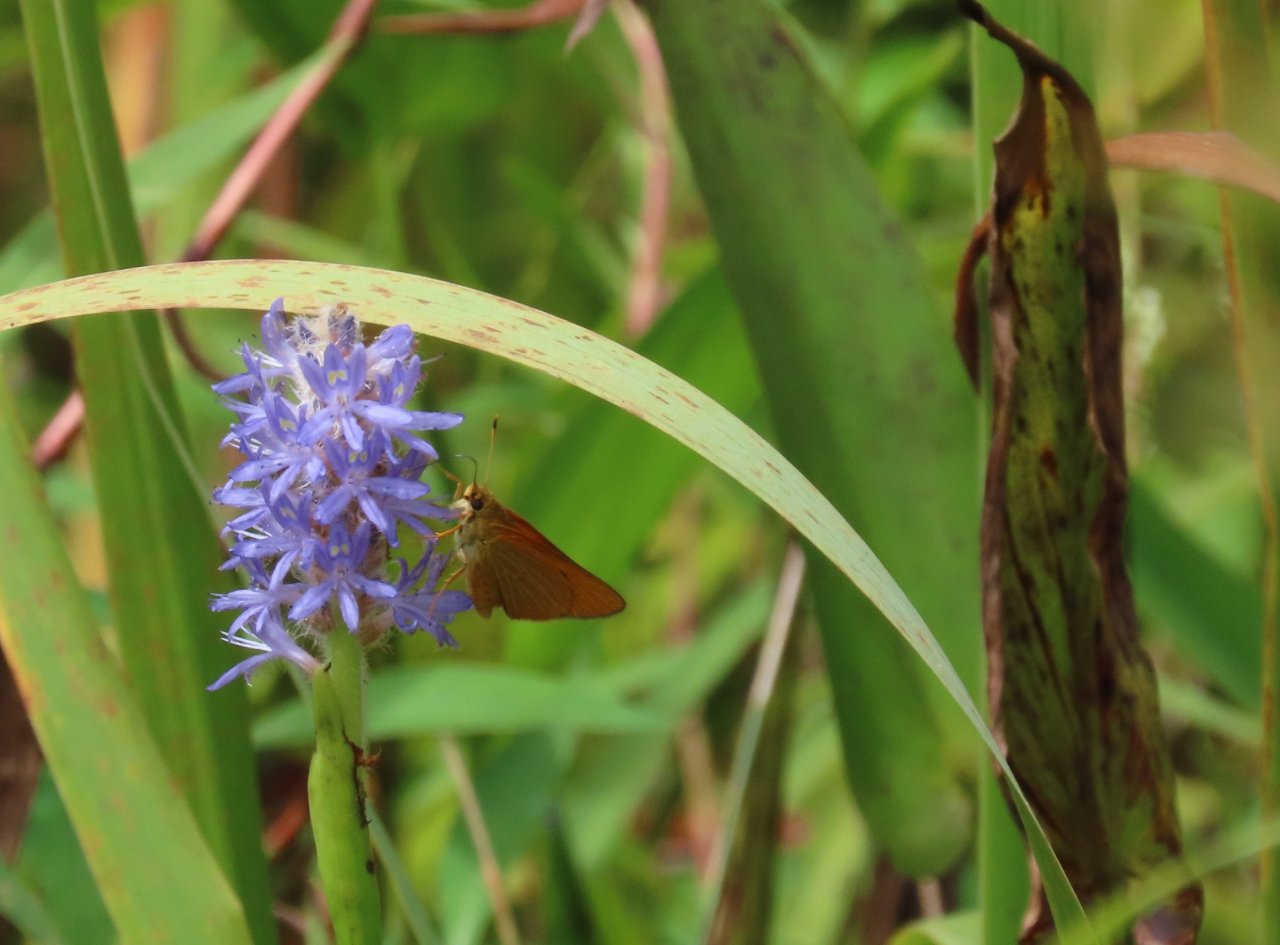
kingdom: Animalia
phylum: Arthropoda
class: Insecta
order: Lepidoptera
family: Hesperiidae
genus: Problema
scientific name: Problema bulenta
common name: Rare Skipper
